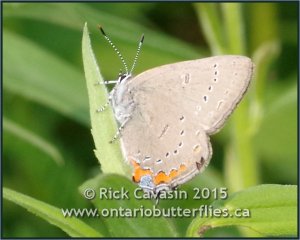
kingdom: Animalia
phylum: Arthropoda
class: Insecta
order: Lepidoptera
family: Lycaenidae
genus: Strymon
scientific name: Strymon acadica
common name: Acadian Hairstreak
